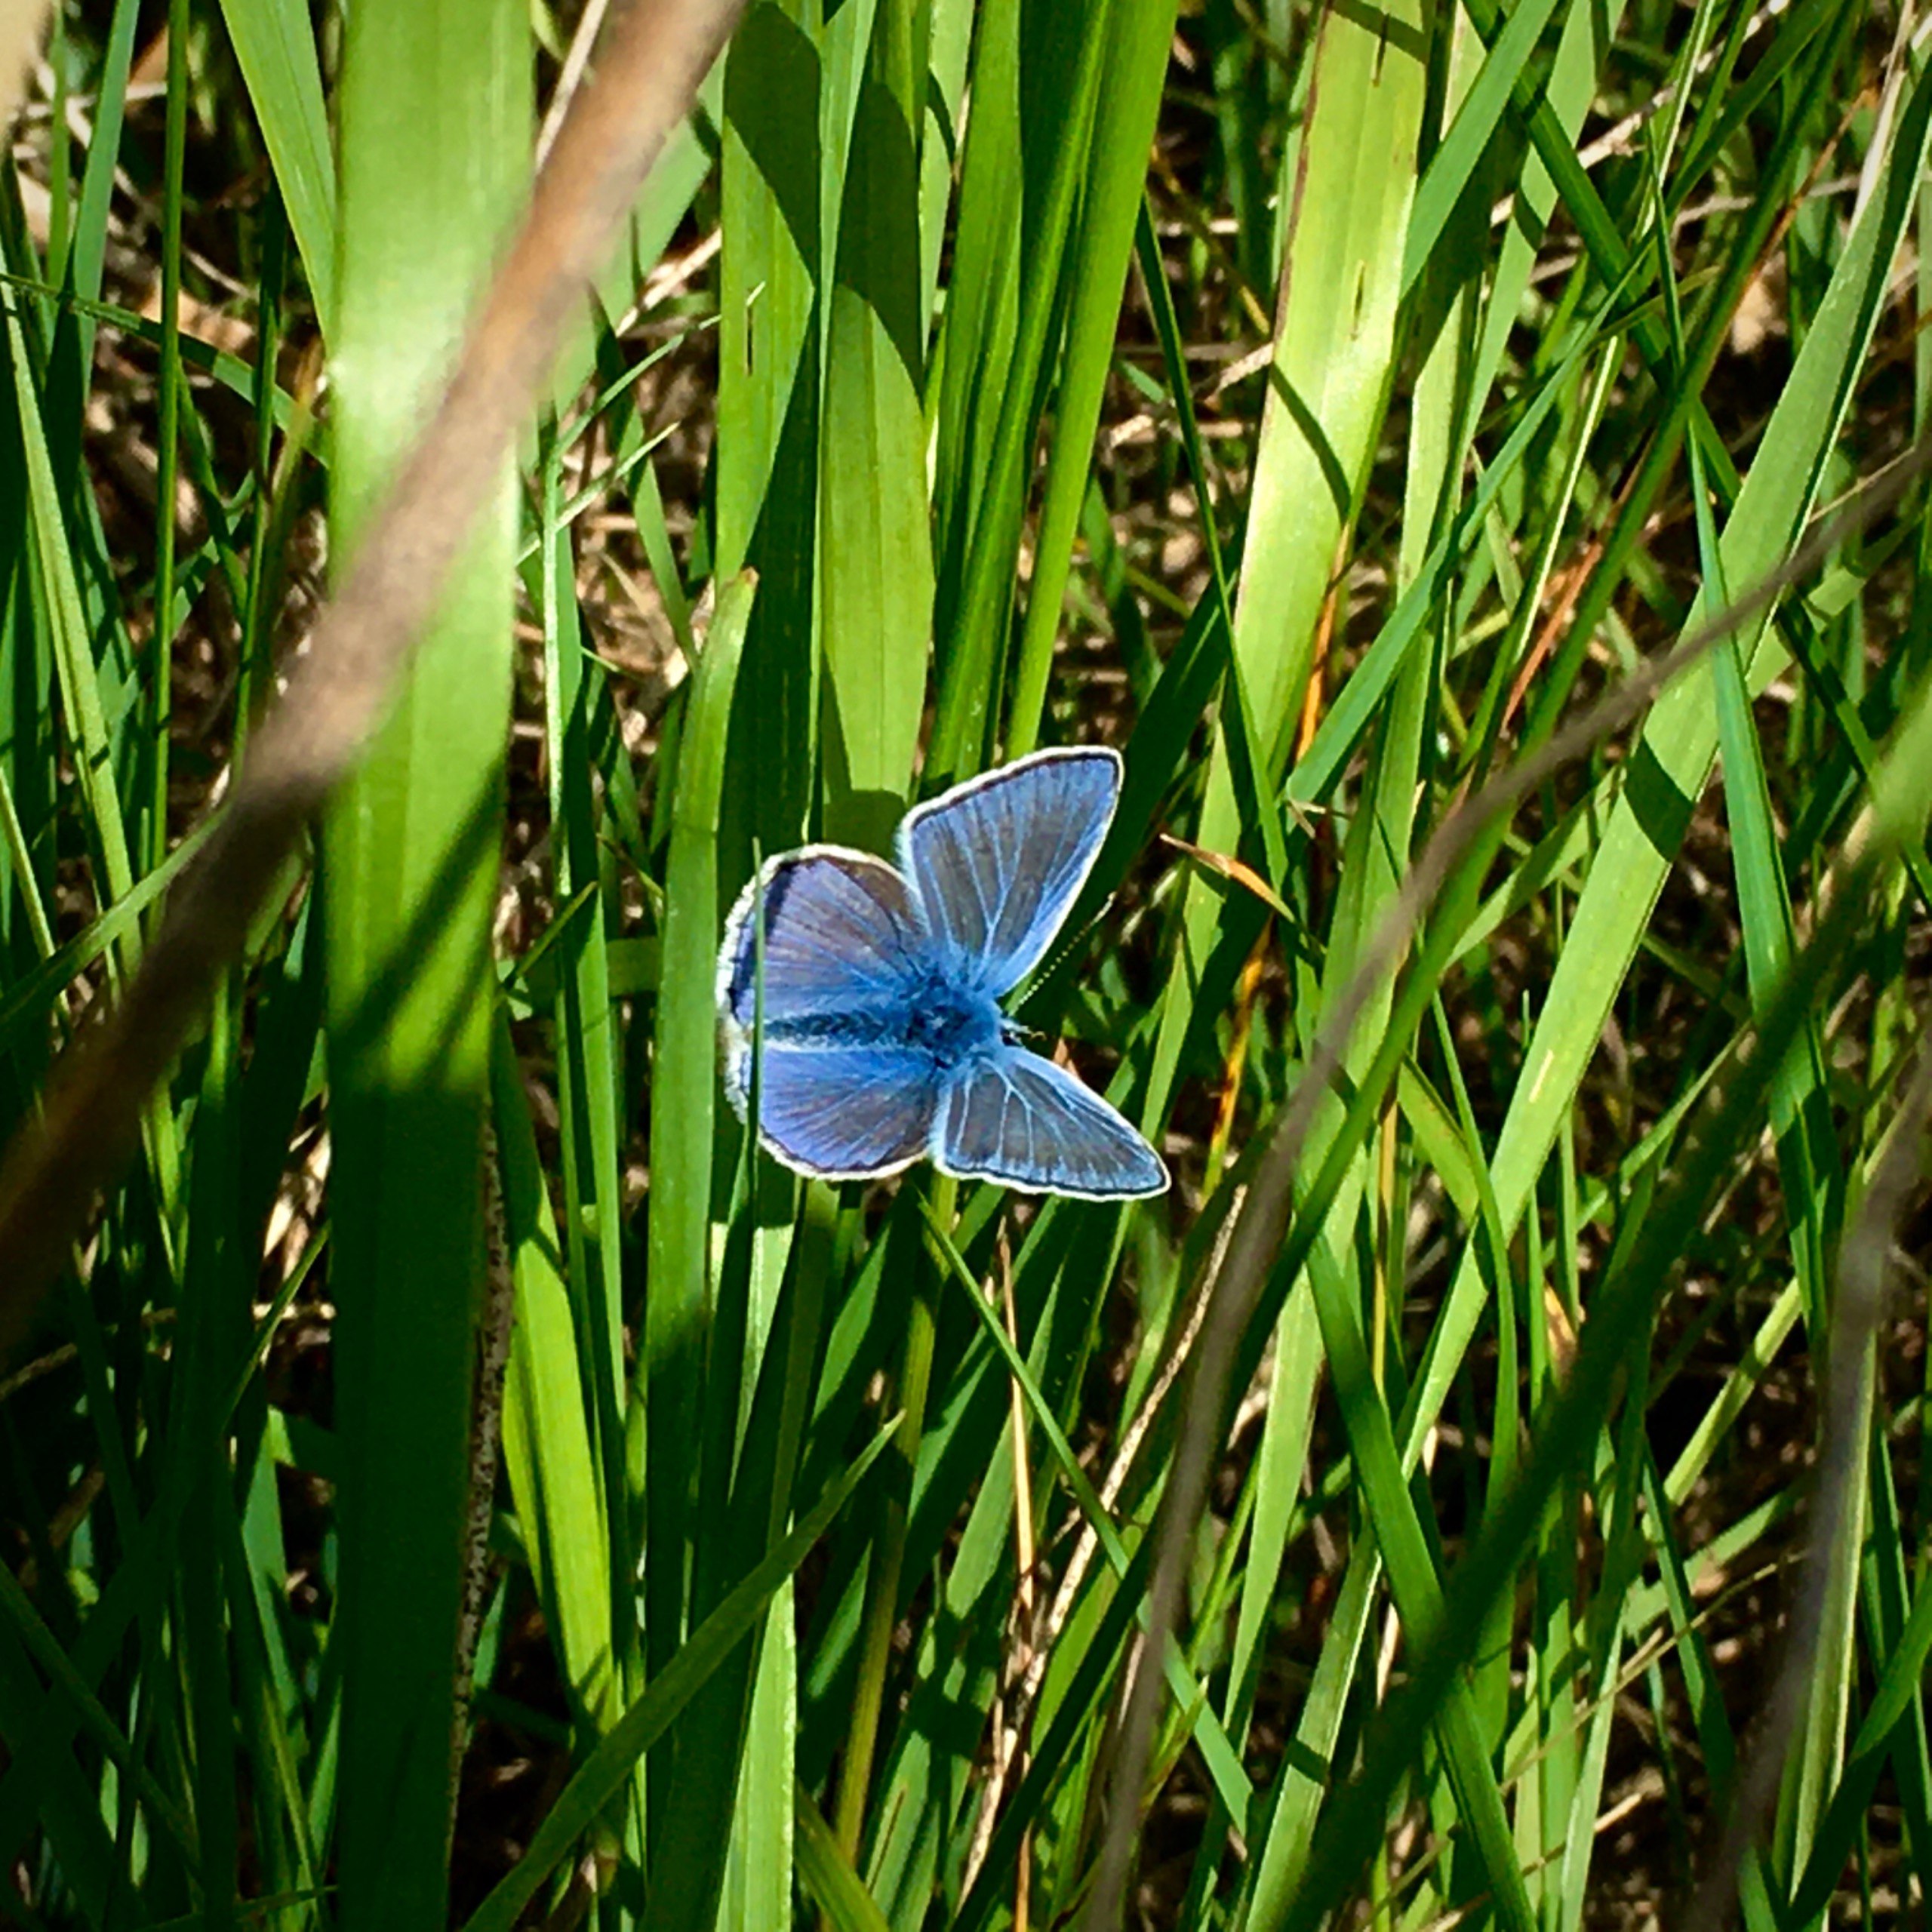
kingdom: Animalia
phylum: Arthropoda
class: Insecta
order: Lepidoptera
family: Lycaenidae
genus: Polyommatus
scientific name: Polyommatus icarus
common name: Almindelig blåfugl
